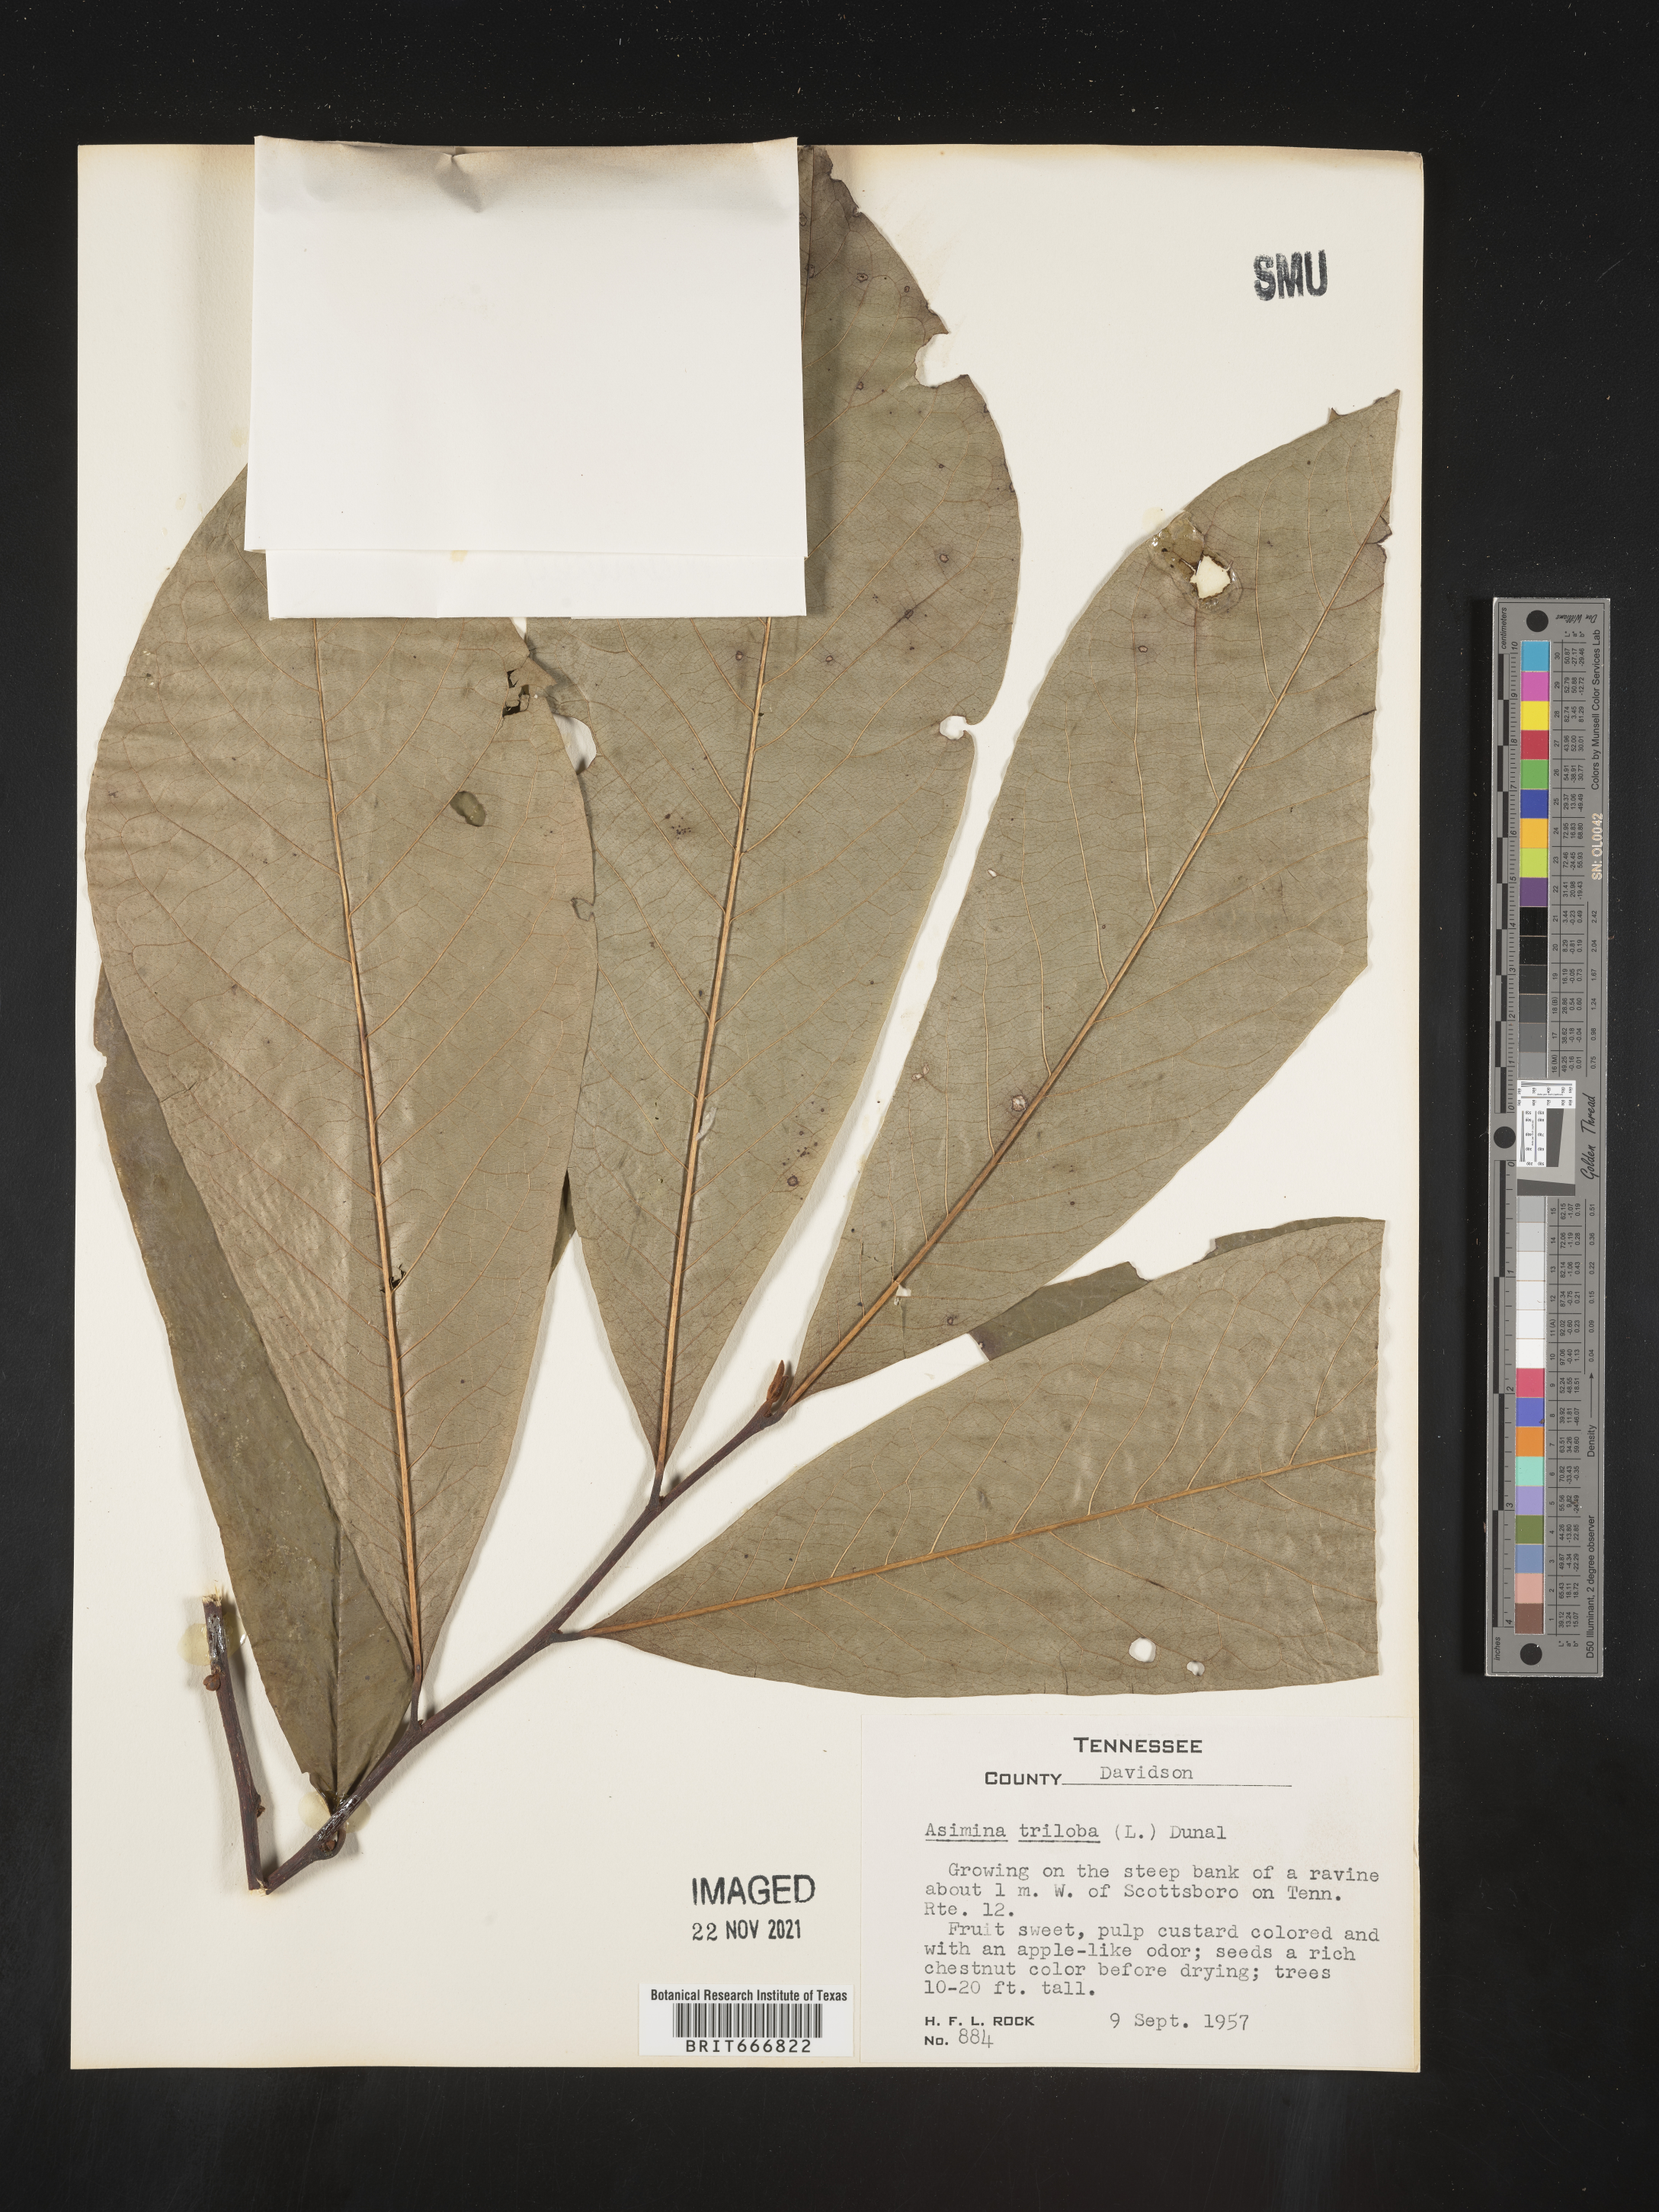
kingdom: Plantae
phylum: Tracheophyta
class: Magnoliopsida
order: Magnoliales
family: Annonaceae
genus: Asimina
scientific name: Asimina triloba
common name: Dog-banana
